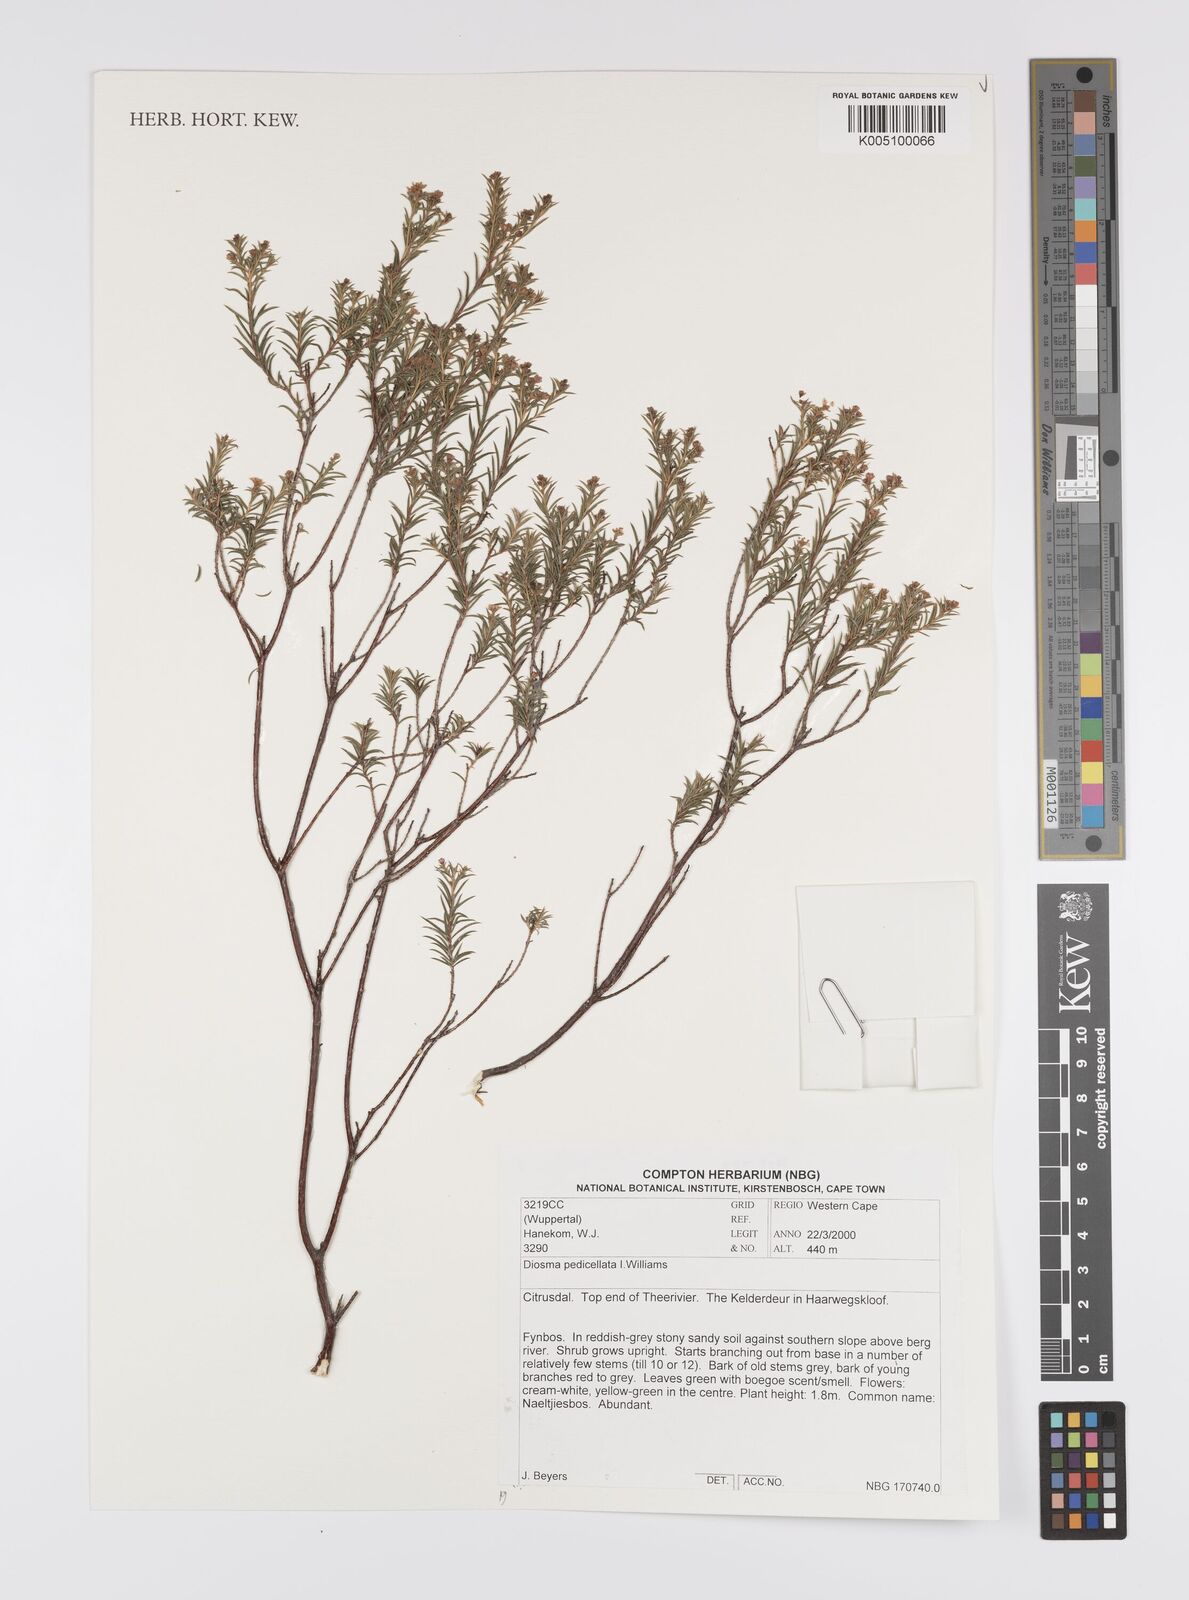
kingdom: Plantae
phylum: Tracheophyta
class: Magnoliopsida
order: Sapindales
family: Rutaceae
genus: Diosma
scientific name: Diosma pedicellata
